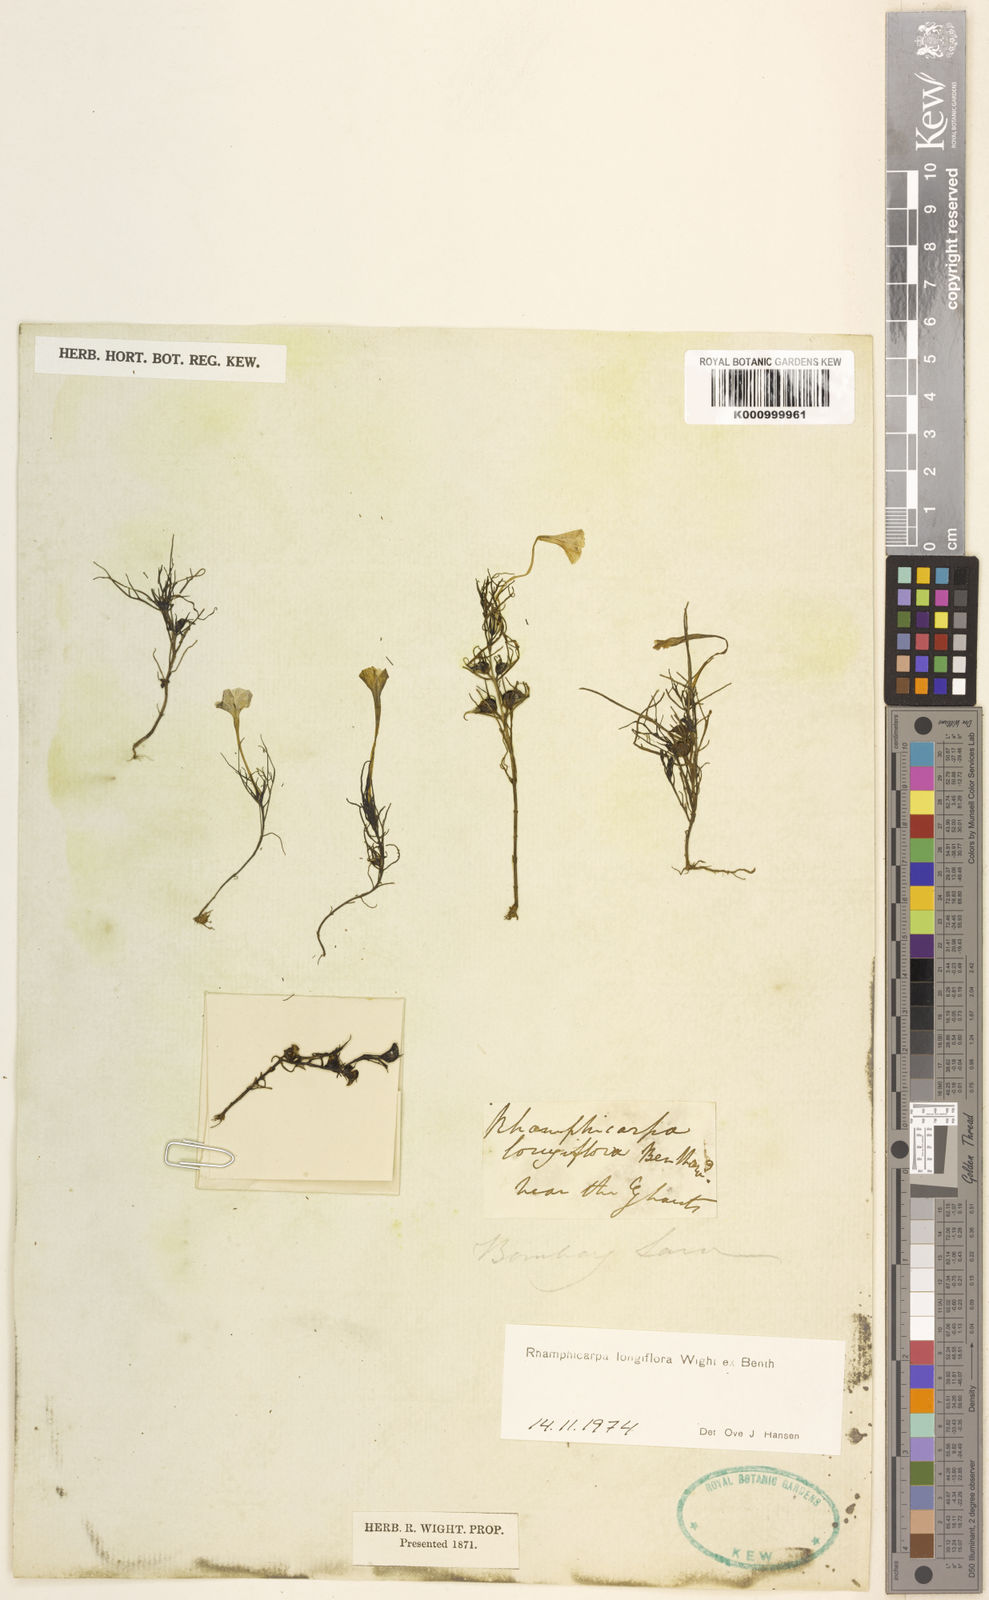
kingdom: Plantae
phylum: Tracheophyta
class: Magnoliopsida
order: Lamiales
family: Orobanchaceae
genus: Rhamphicarpa
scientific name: Rhamphicarpa elongata
